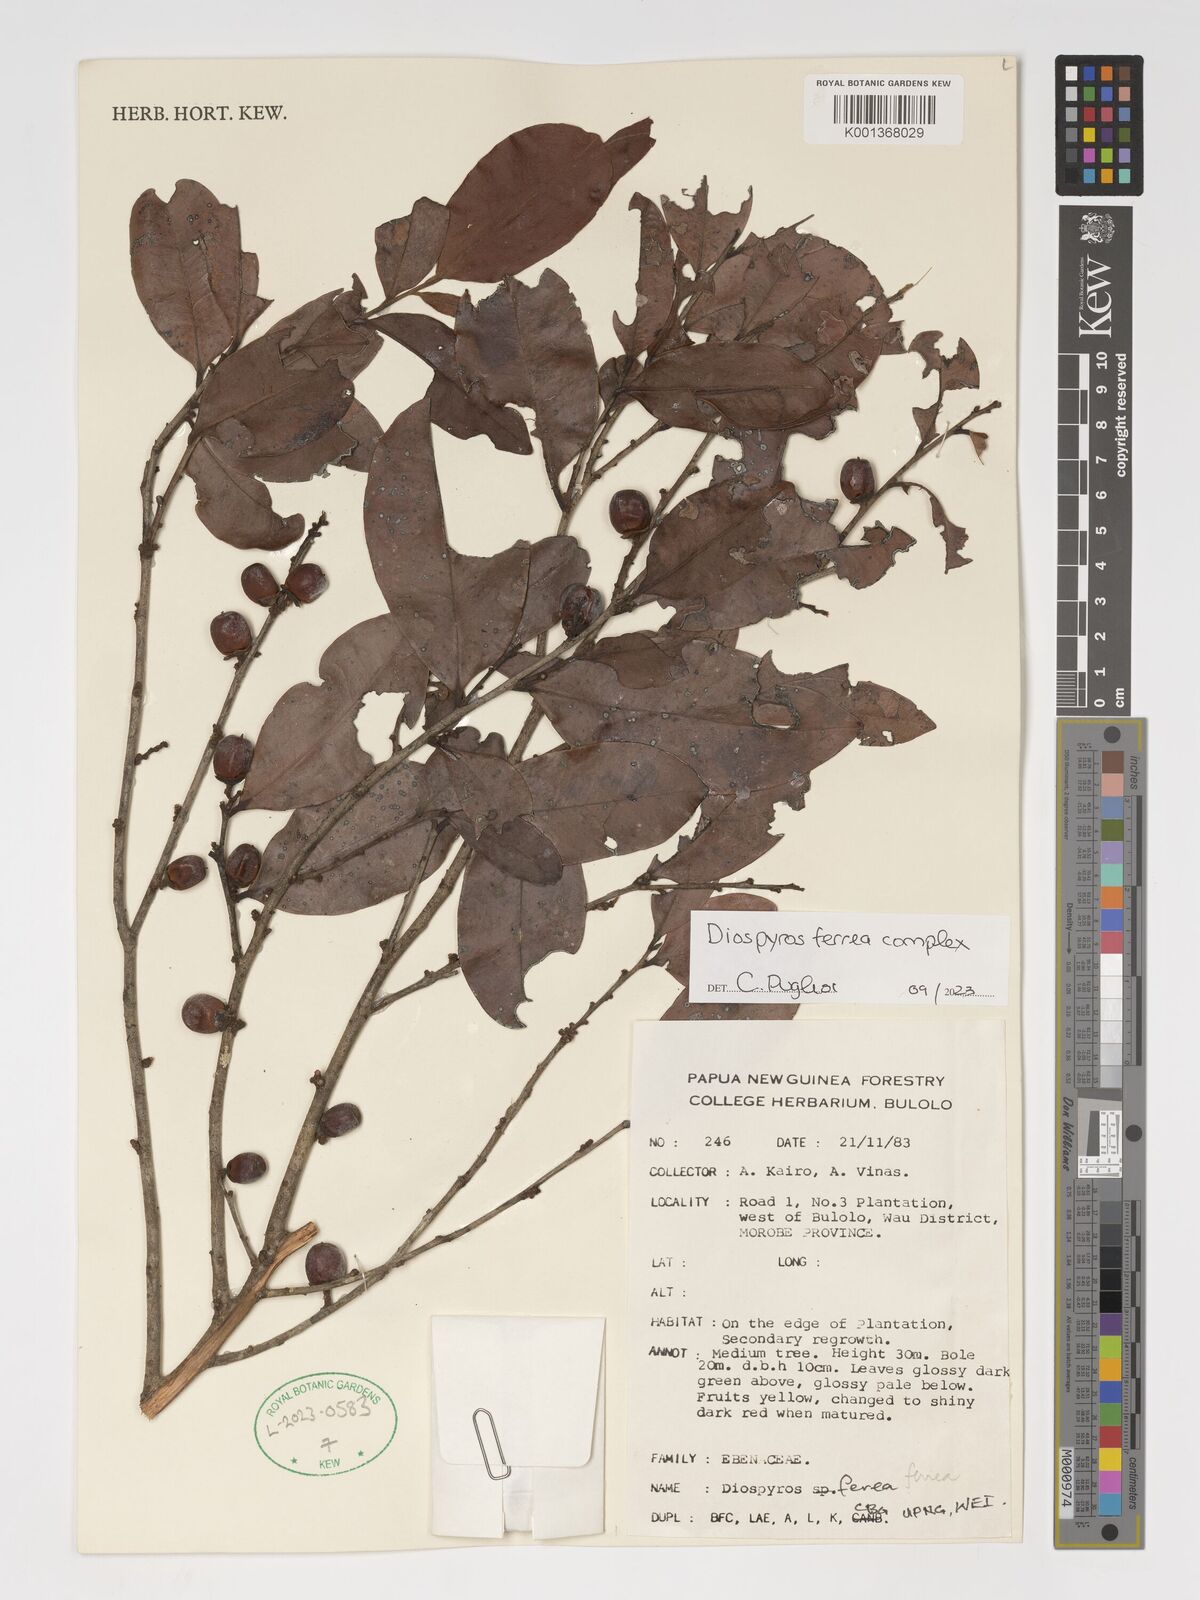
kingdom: Plantae
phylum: Tracheophyta
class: Magnoliopsida
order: Ericales
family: Ebenaceae
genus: Diospyros
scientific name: Diospyros ferrea
